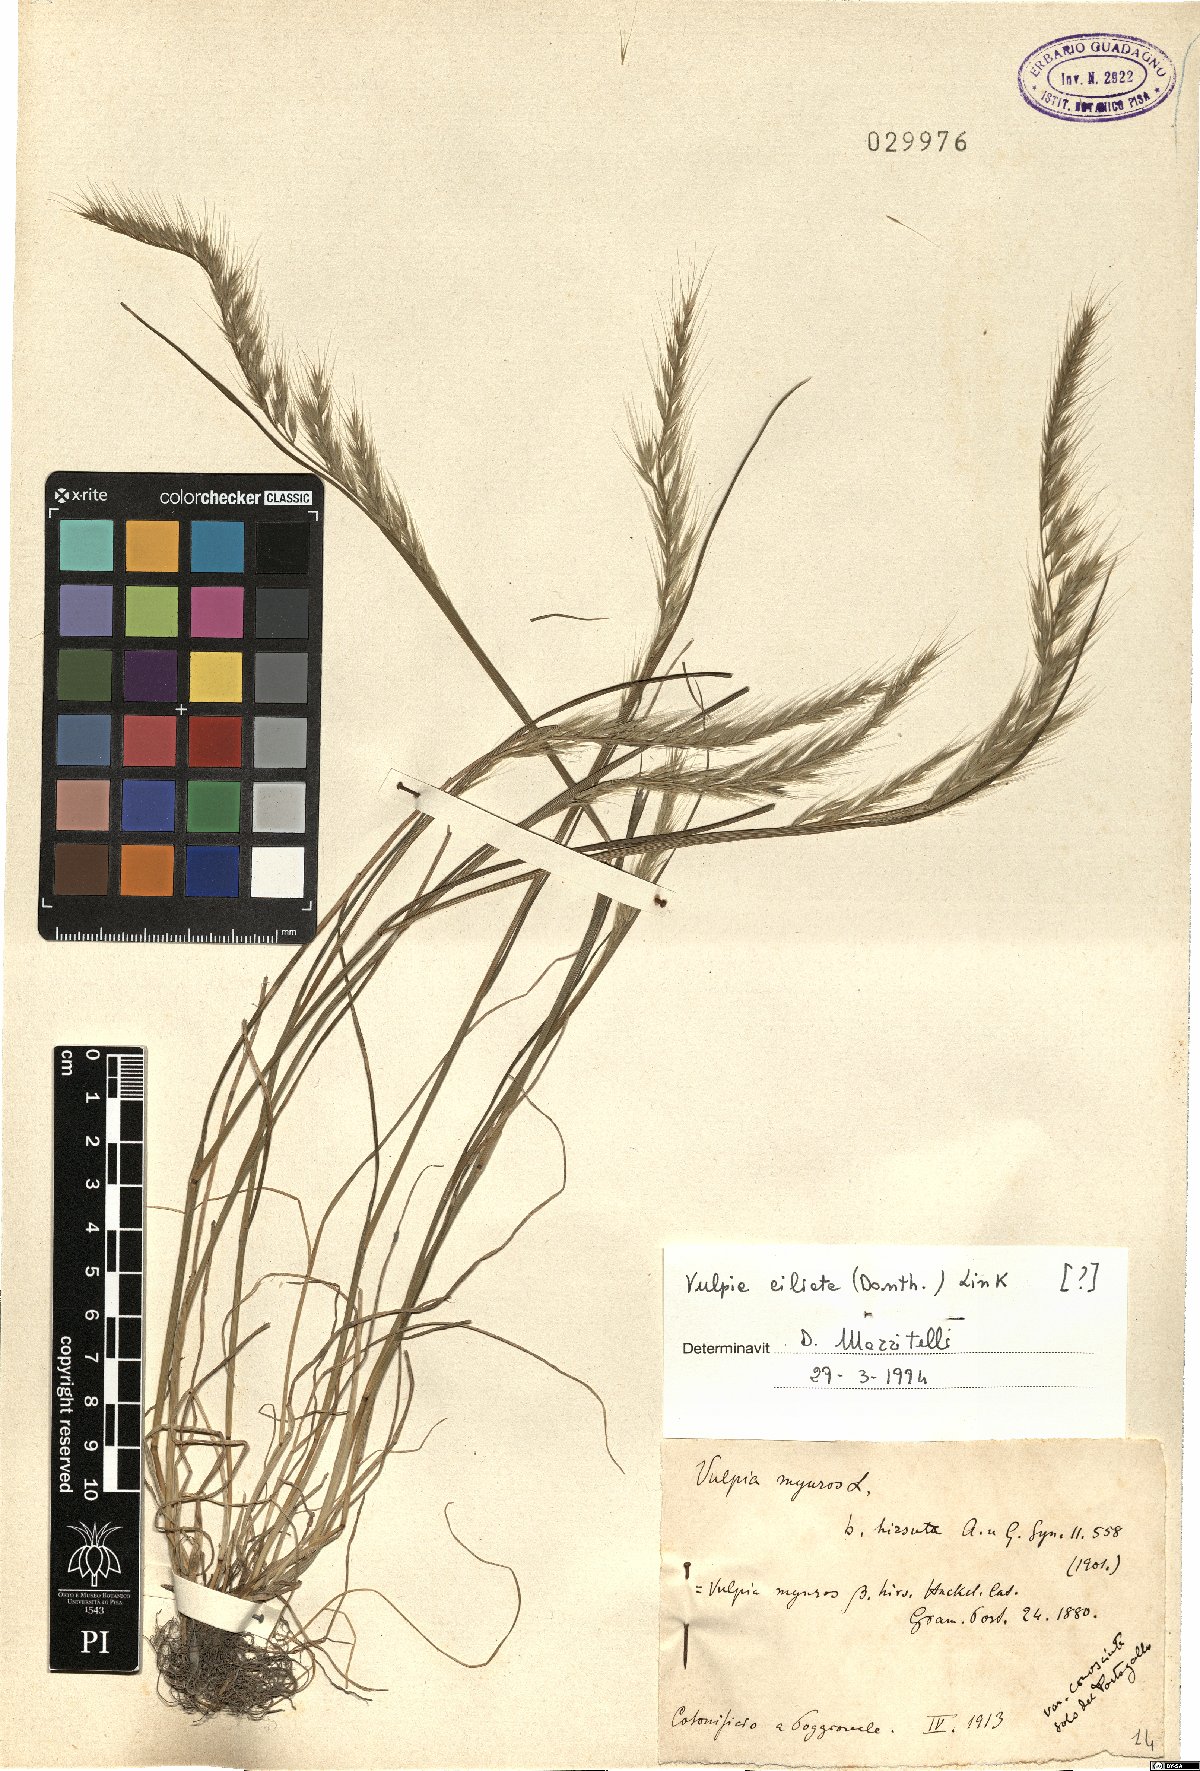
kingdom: Plantae
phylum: Tracheophyta
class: Liliopsida
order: Poales
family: Poaceae
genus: Festuca
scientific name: Festuca ambigua
